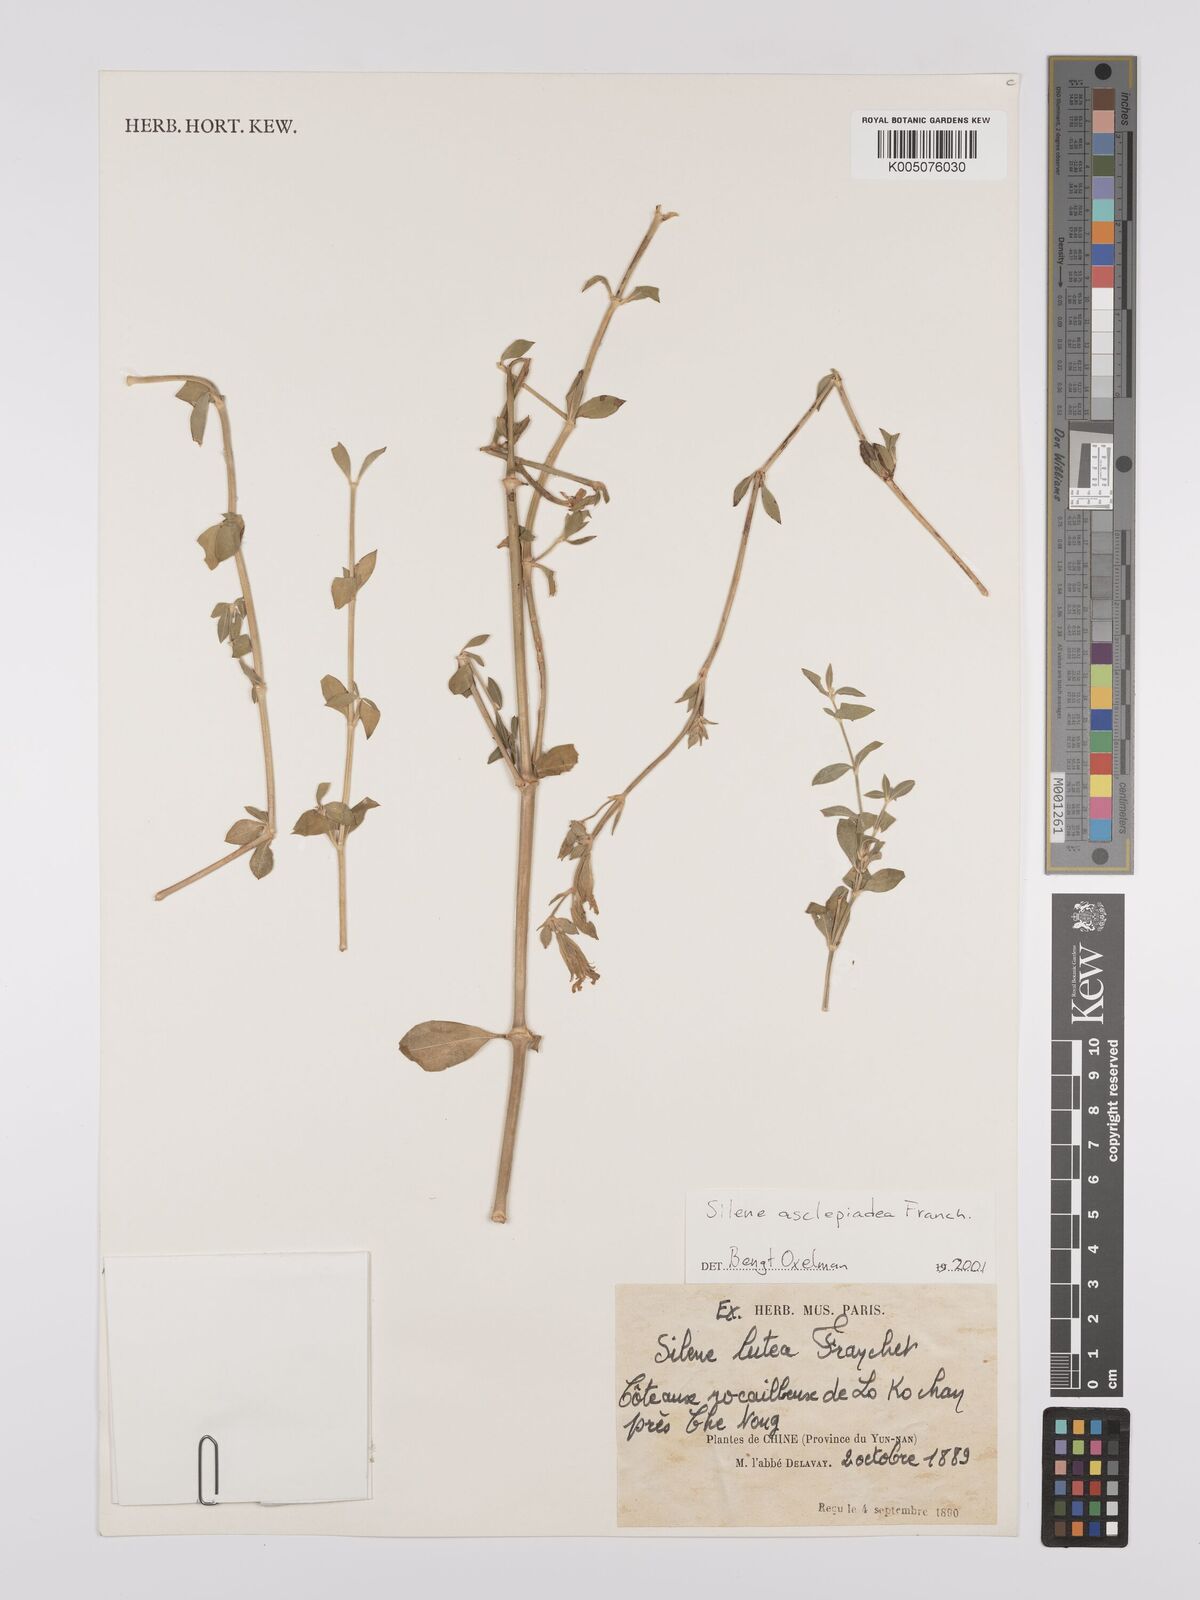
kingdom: Plantae
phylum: Tracheophyta
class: Magnoliopsida
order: Caryophyllales
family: Caryophyllaceae
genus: Silene
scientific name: Silene asclepiadea
